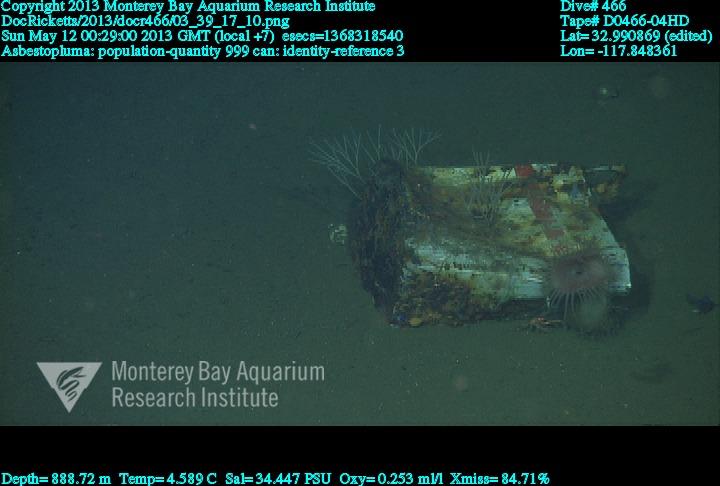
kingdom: Animalia
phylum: Porifera
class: Demospongiae
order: Poecilosclerida
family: Cladorhizidae
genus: Asbestopluma
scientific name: Asbestopluma
